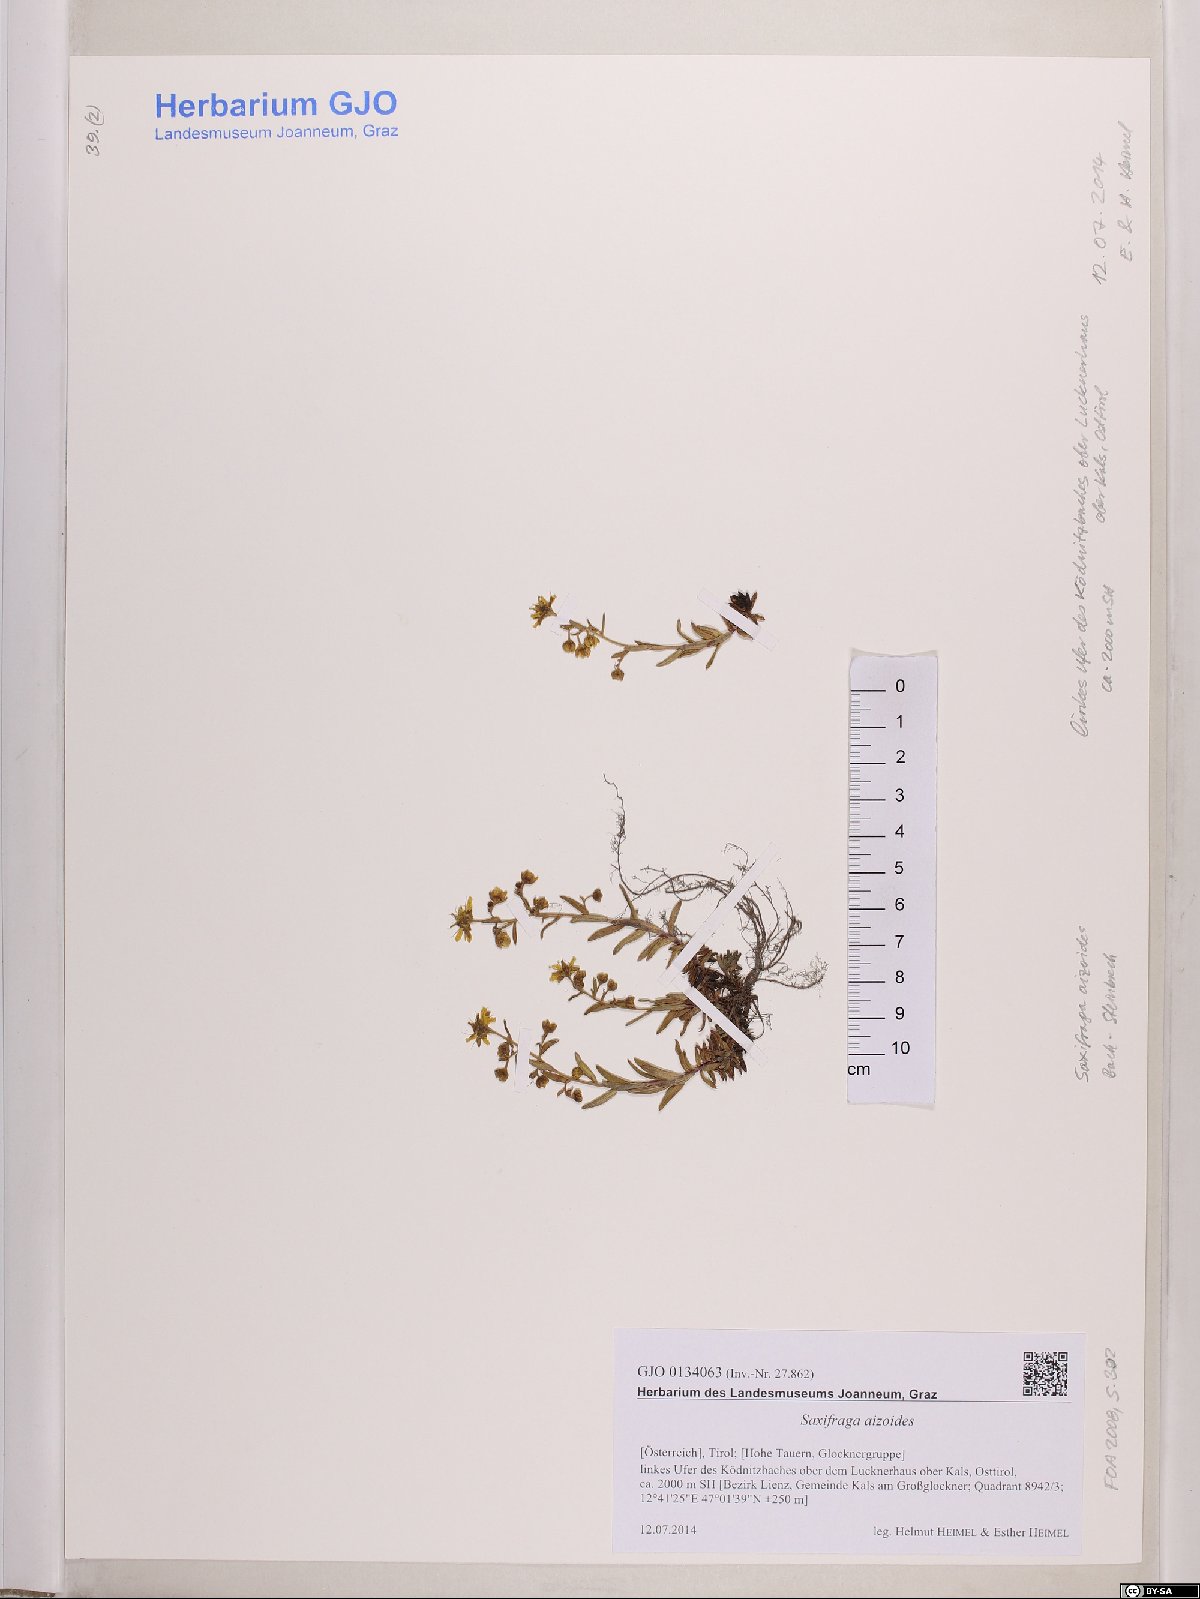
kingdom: Plantae
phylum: Tracheophyta
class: Magnoliopsida
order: Saxifragales
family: Saxifragaceae
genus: Saxifraga
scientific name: Saxifraga aizoides
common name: Yellow mountain saxifrage
